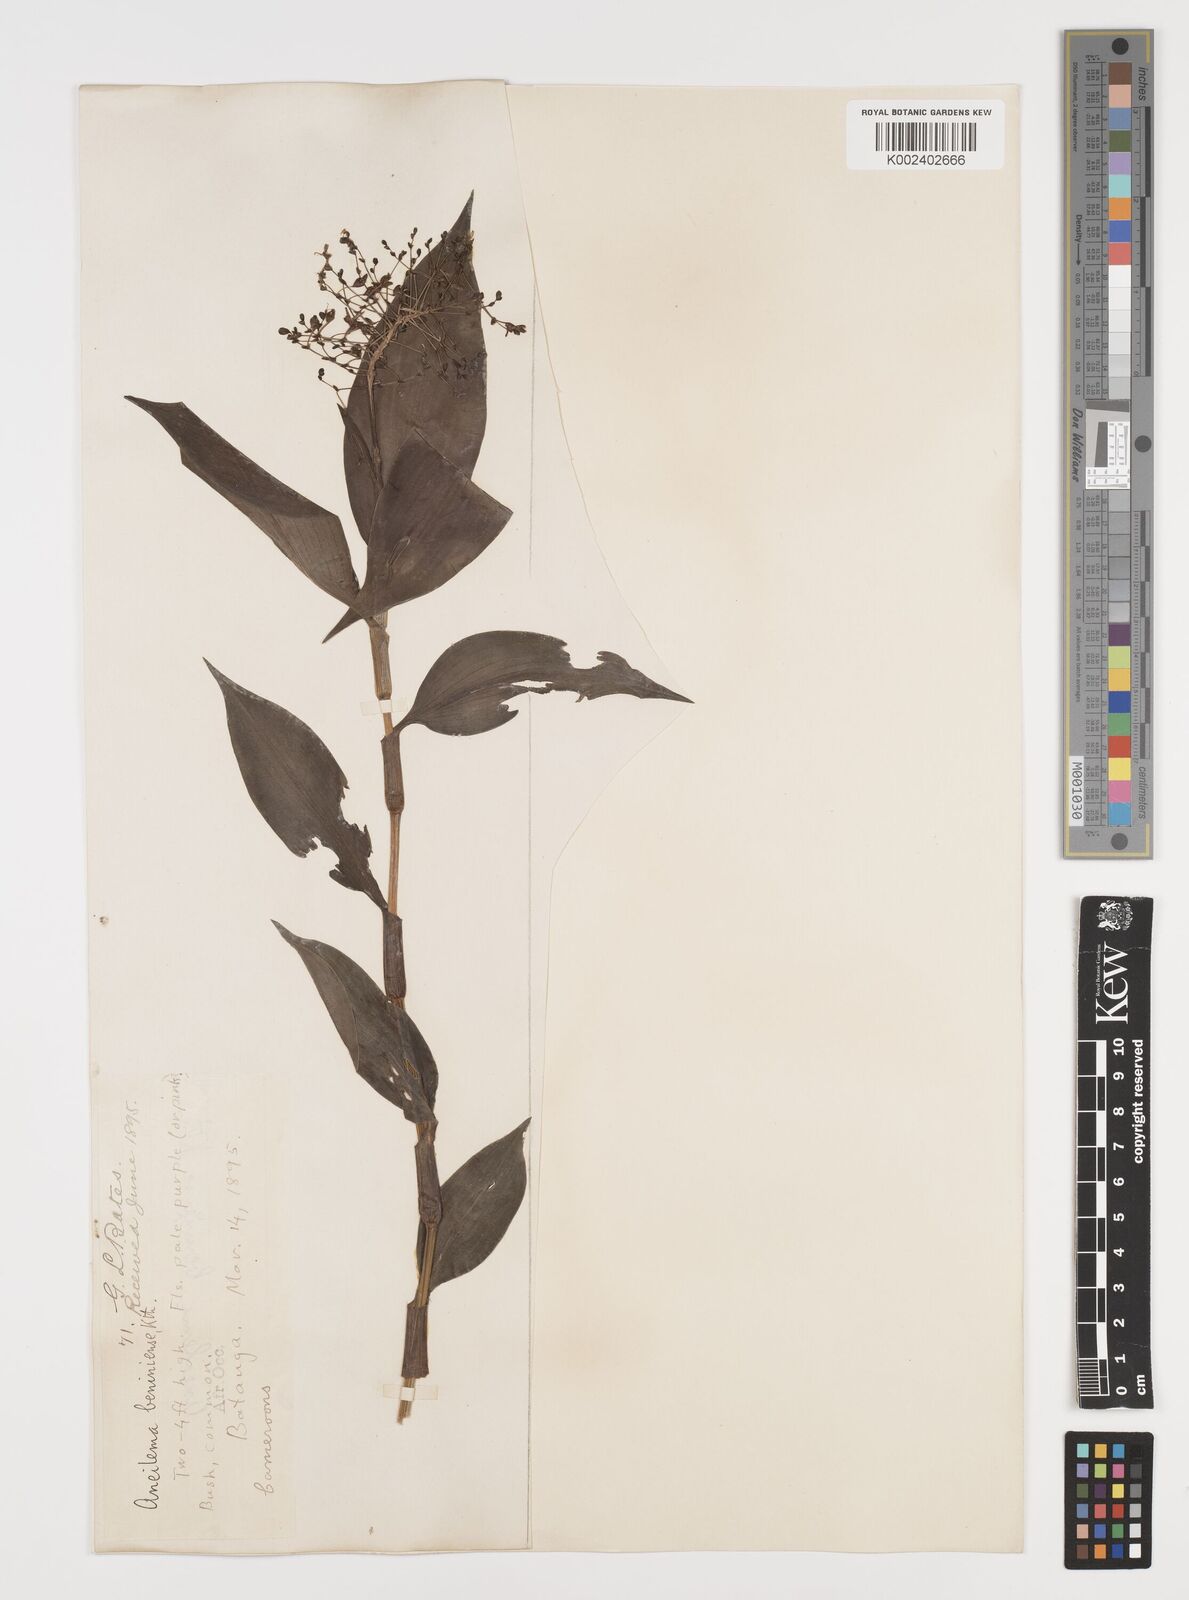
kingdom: Plantae
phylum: Tracheophyta
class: Liliopsida
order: Commelinales
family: Commelinaceae
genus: Aneilema
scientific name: Aneilema beniniense
